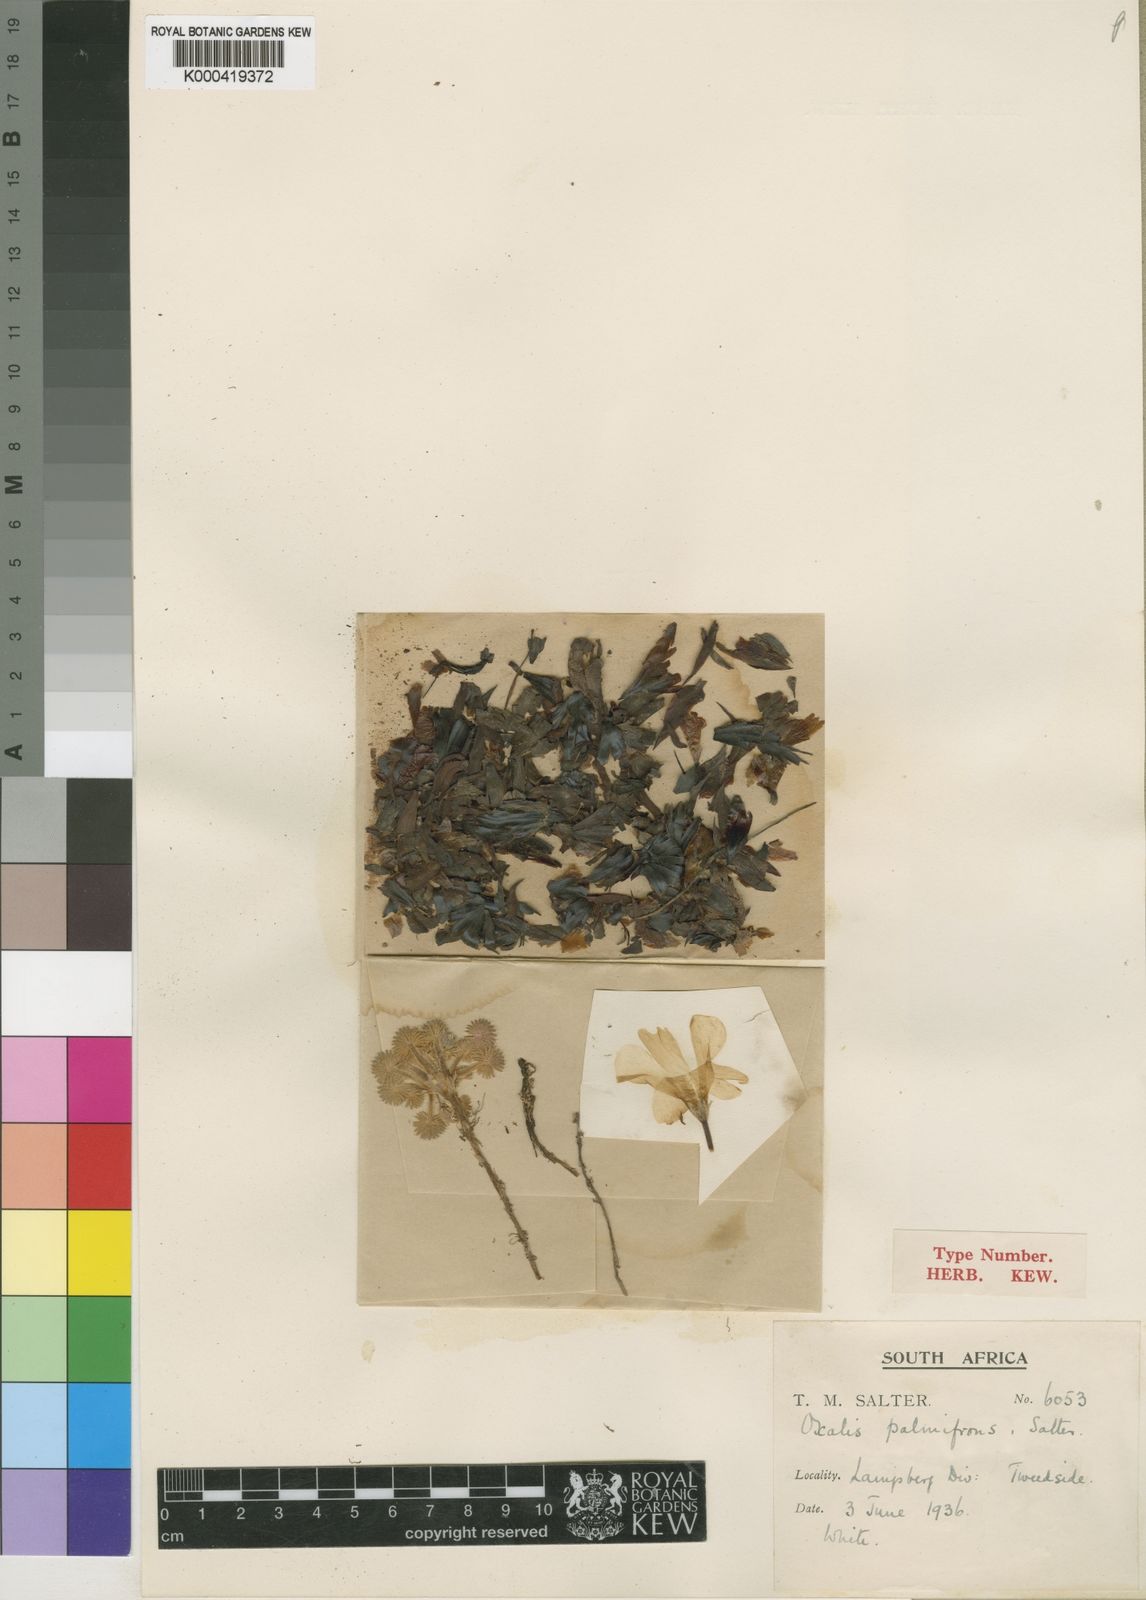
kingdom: Plantae
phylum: Tracheophyta
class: Magnoliopsida
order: Oxalidales
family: Oxalidaceae
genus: Oxalis
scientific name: Oxalis palmifrons
